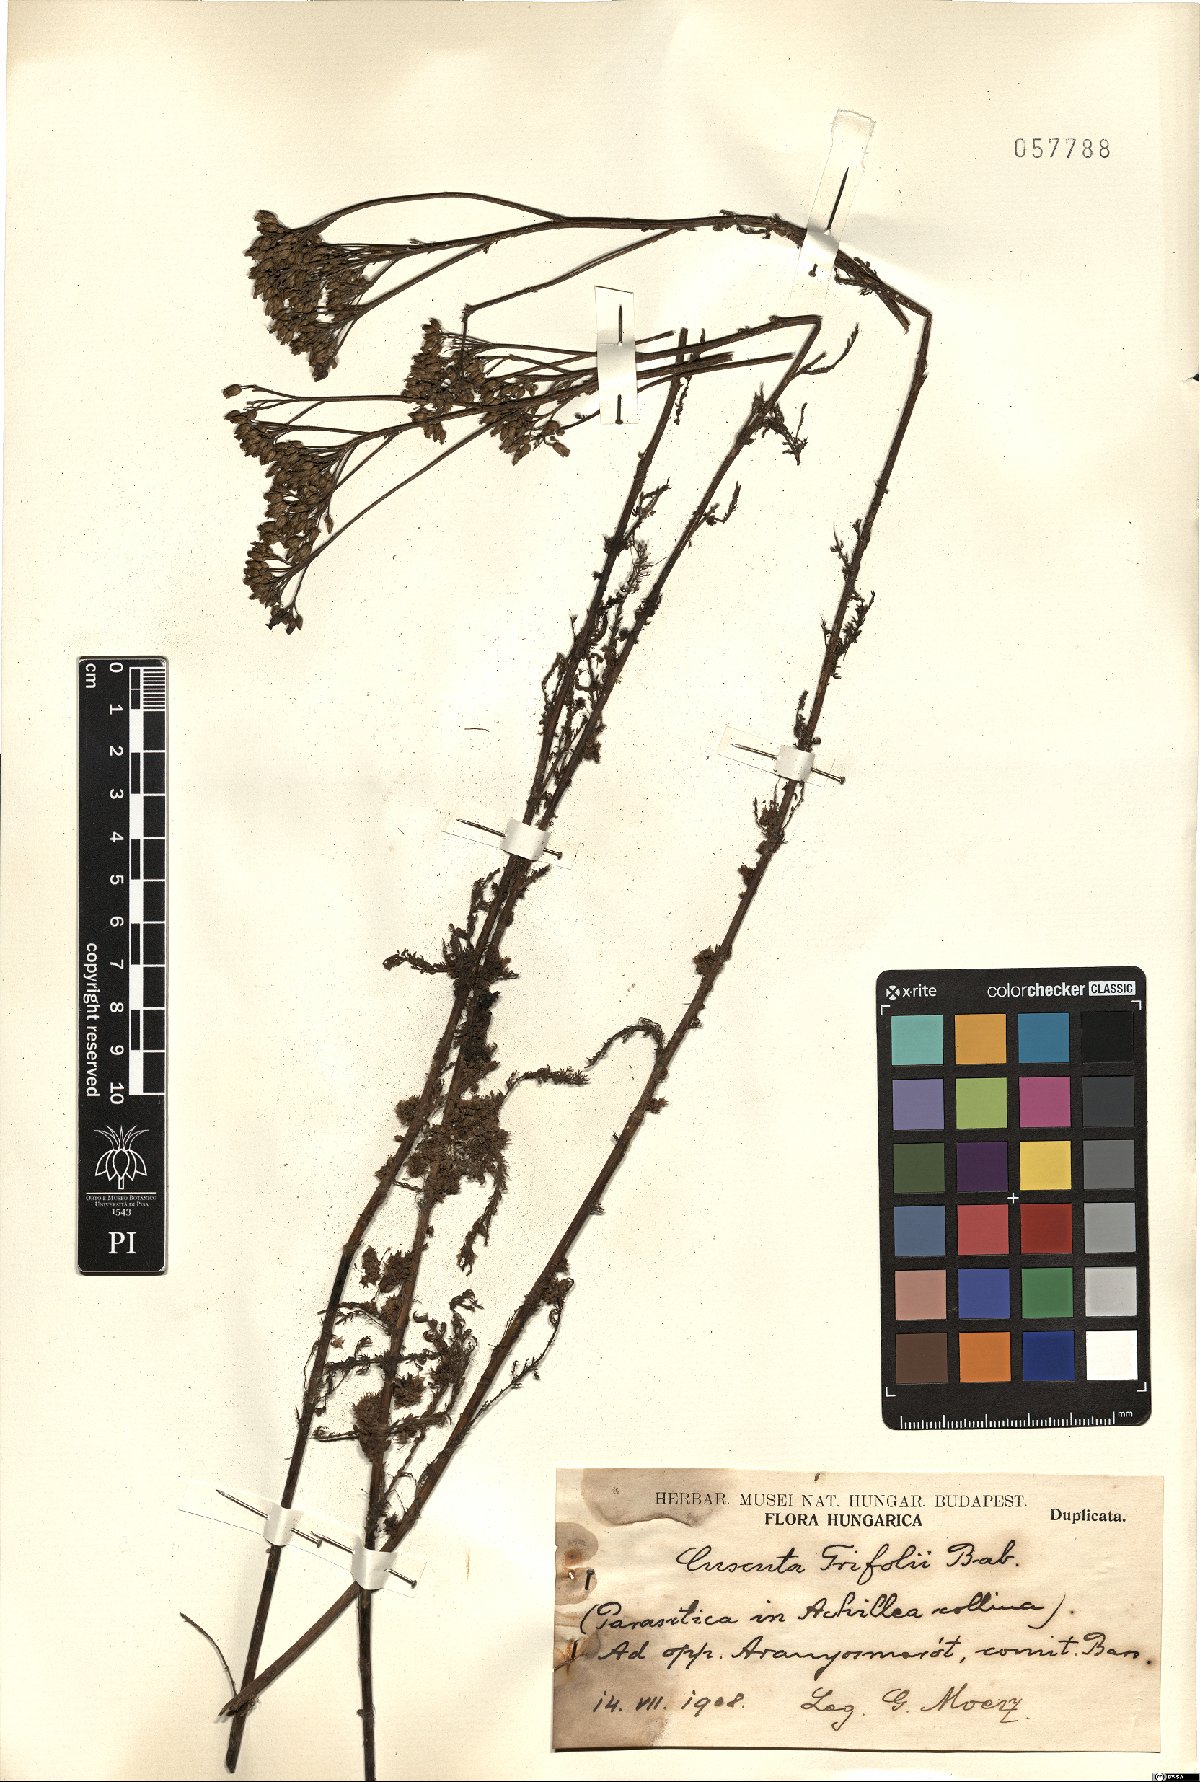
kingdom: Plantae
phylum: Tracheophyta
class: Magnoliopsida
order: Solanales
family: Convolvulaceae
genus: Cuscuta
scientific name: Cuscuta epithymum
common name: Clover dodder
